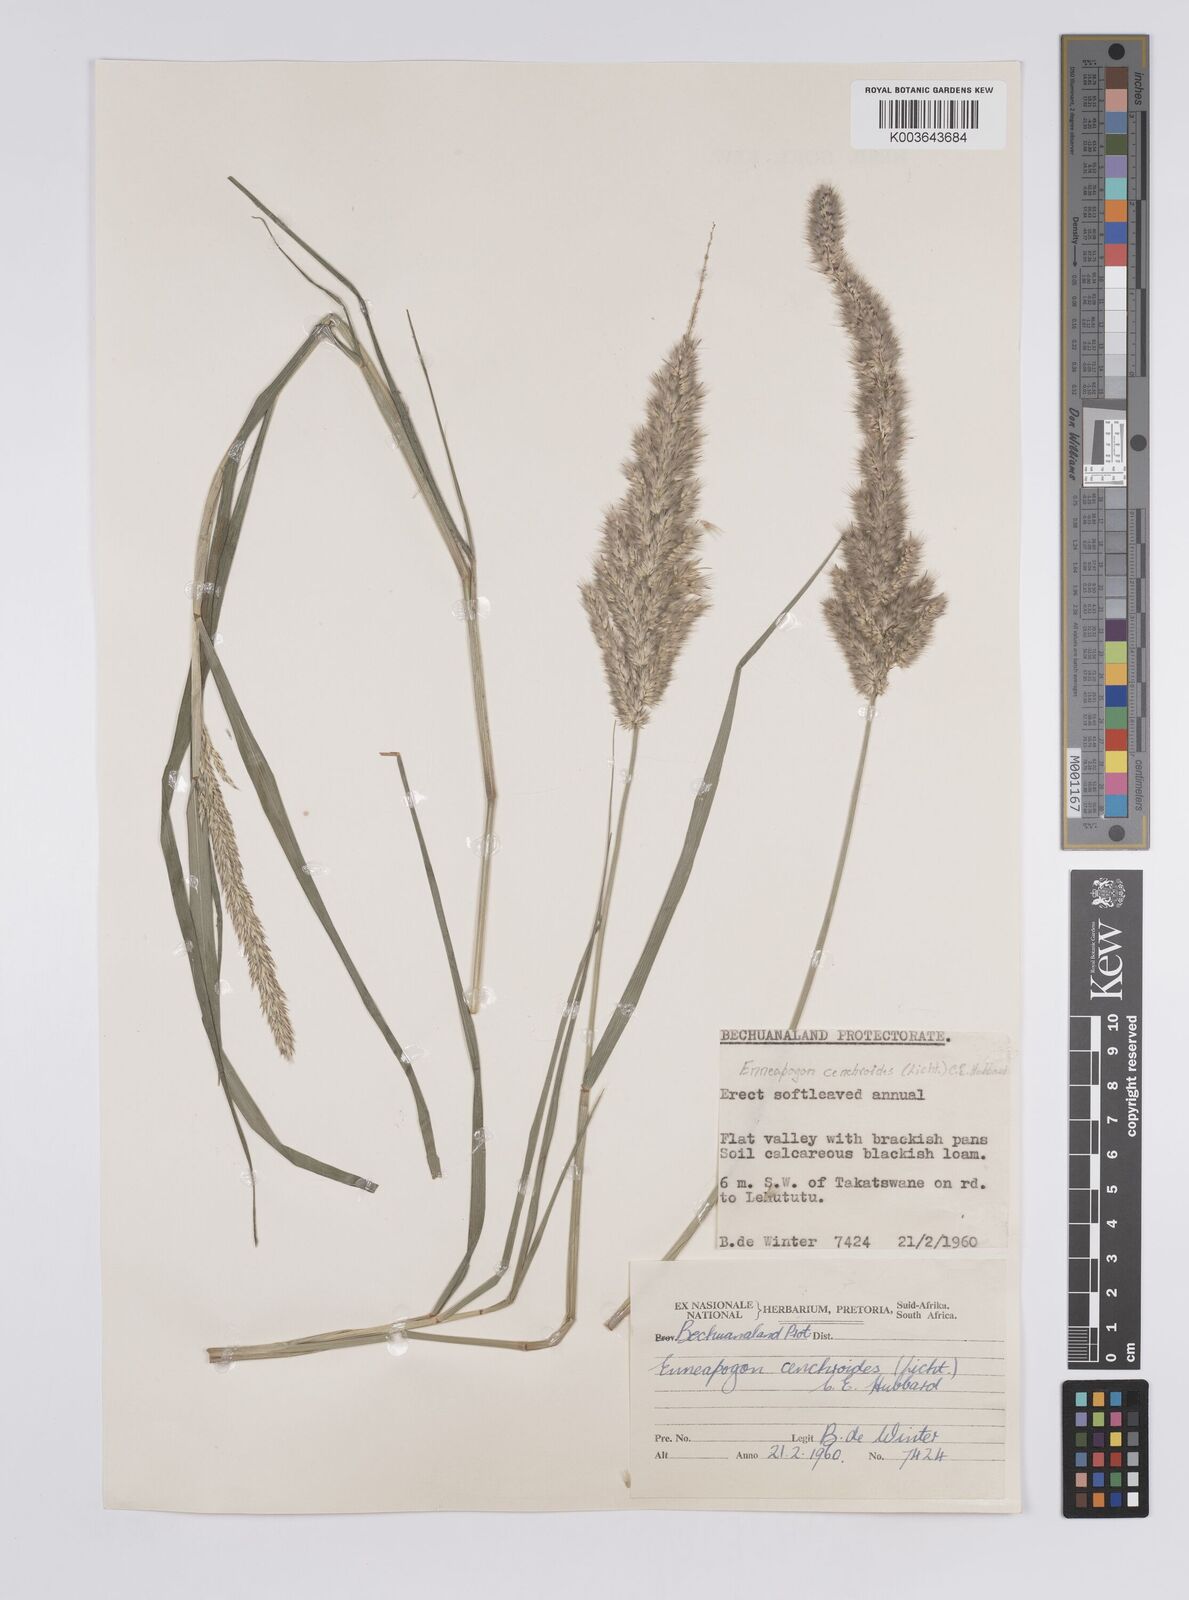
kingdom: Plantae
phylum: Tracheophyta
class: Liliopsida
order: Poales
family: Poaceae
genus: Enneapogon
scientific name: Enneapogon cenchroides
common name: Soft feather pappusgrass
